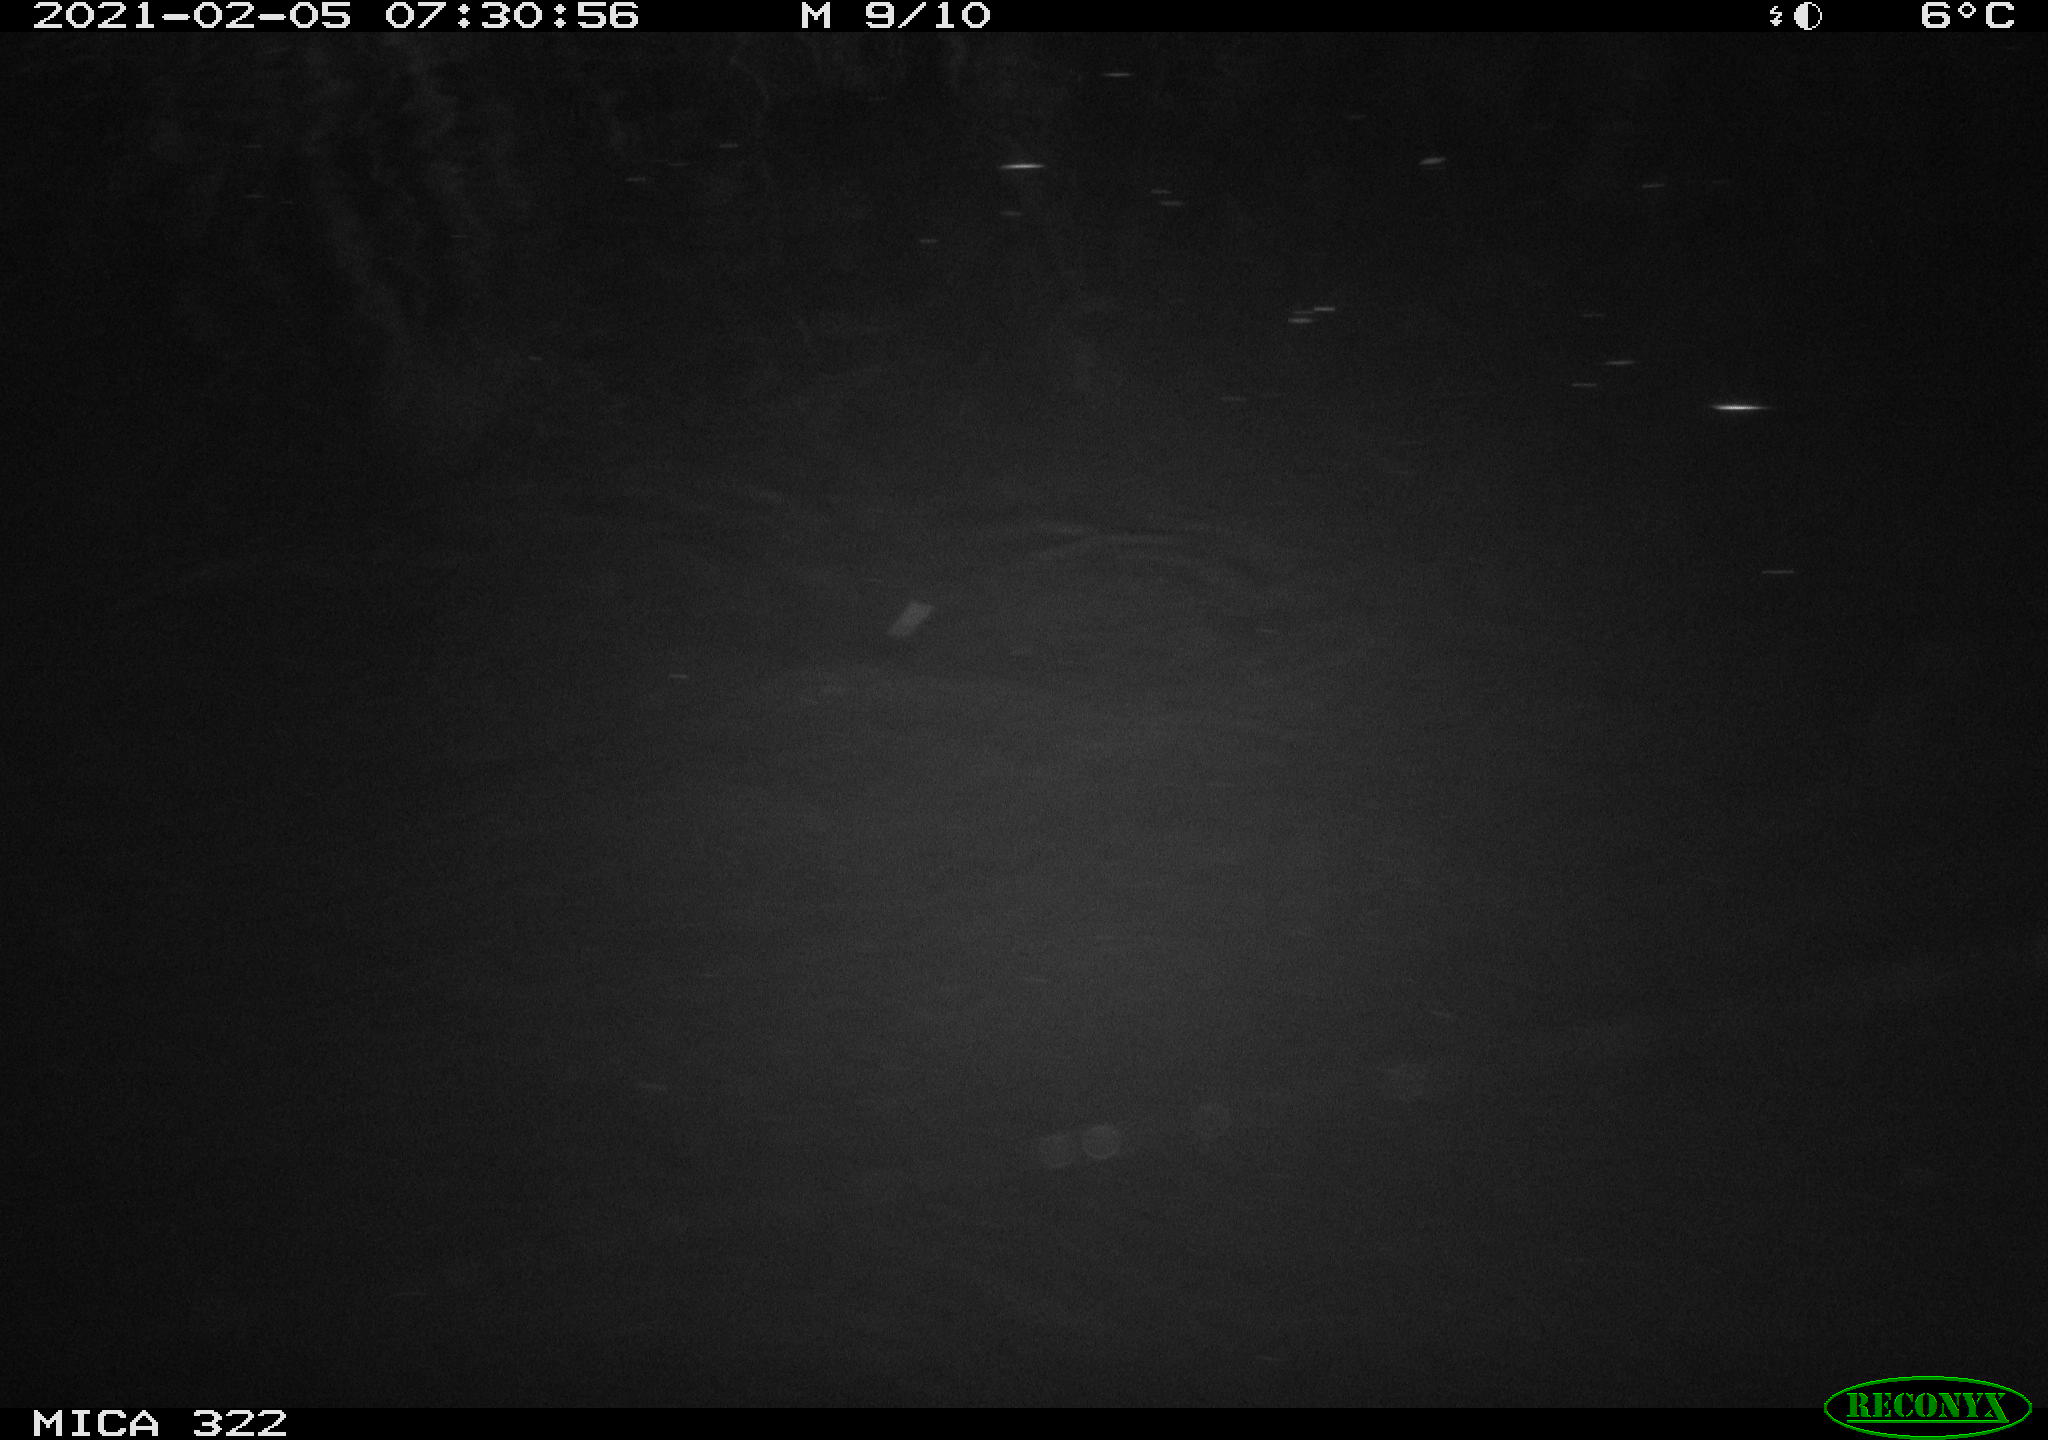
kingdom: Animalia
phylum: Chordata
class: Aves
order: Anseriformes
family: Anatidae
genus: Anas
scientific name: Anas platyrhynchos
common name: Mallard
